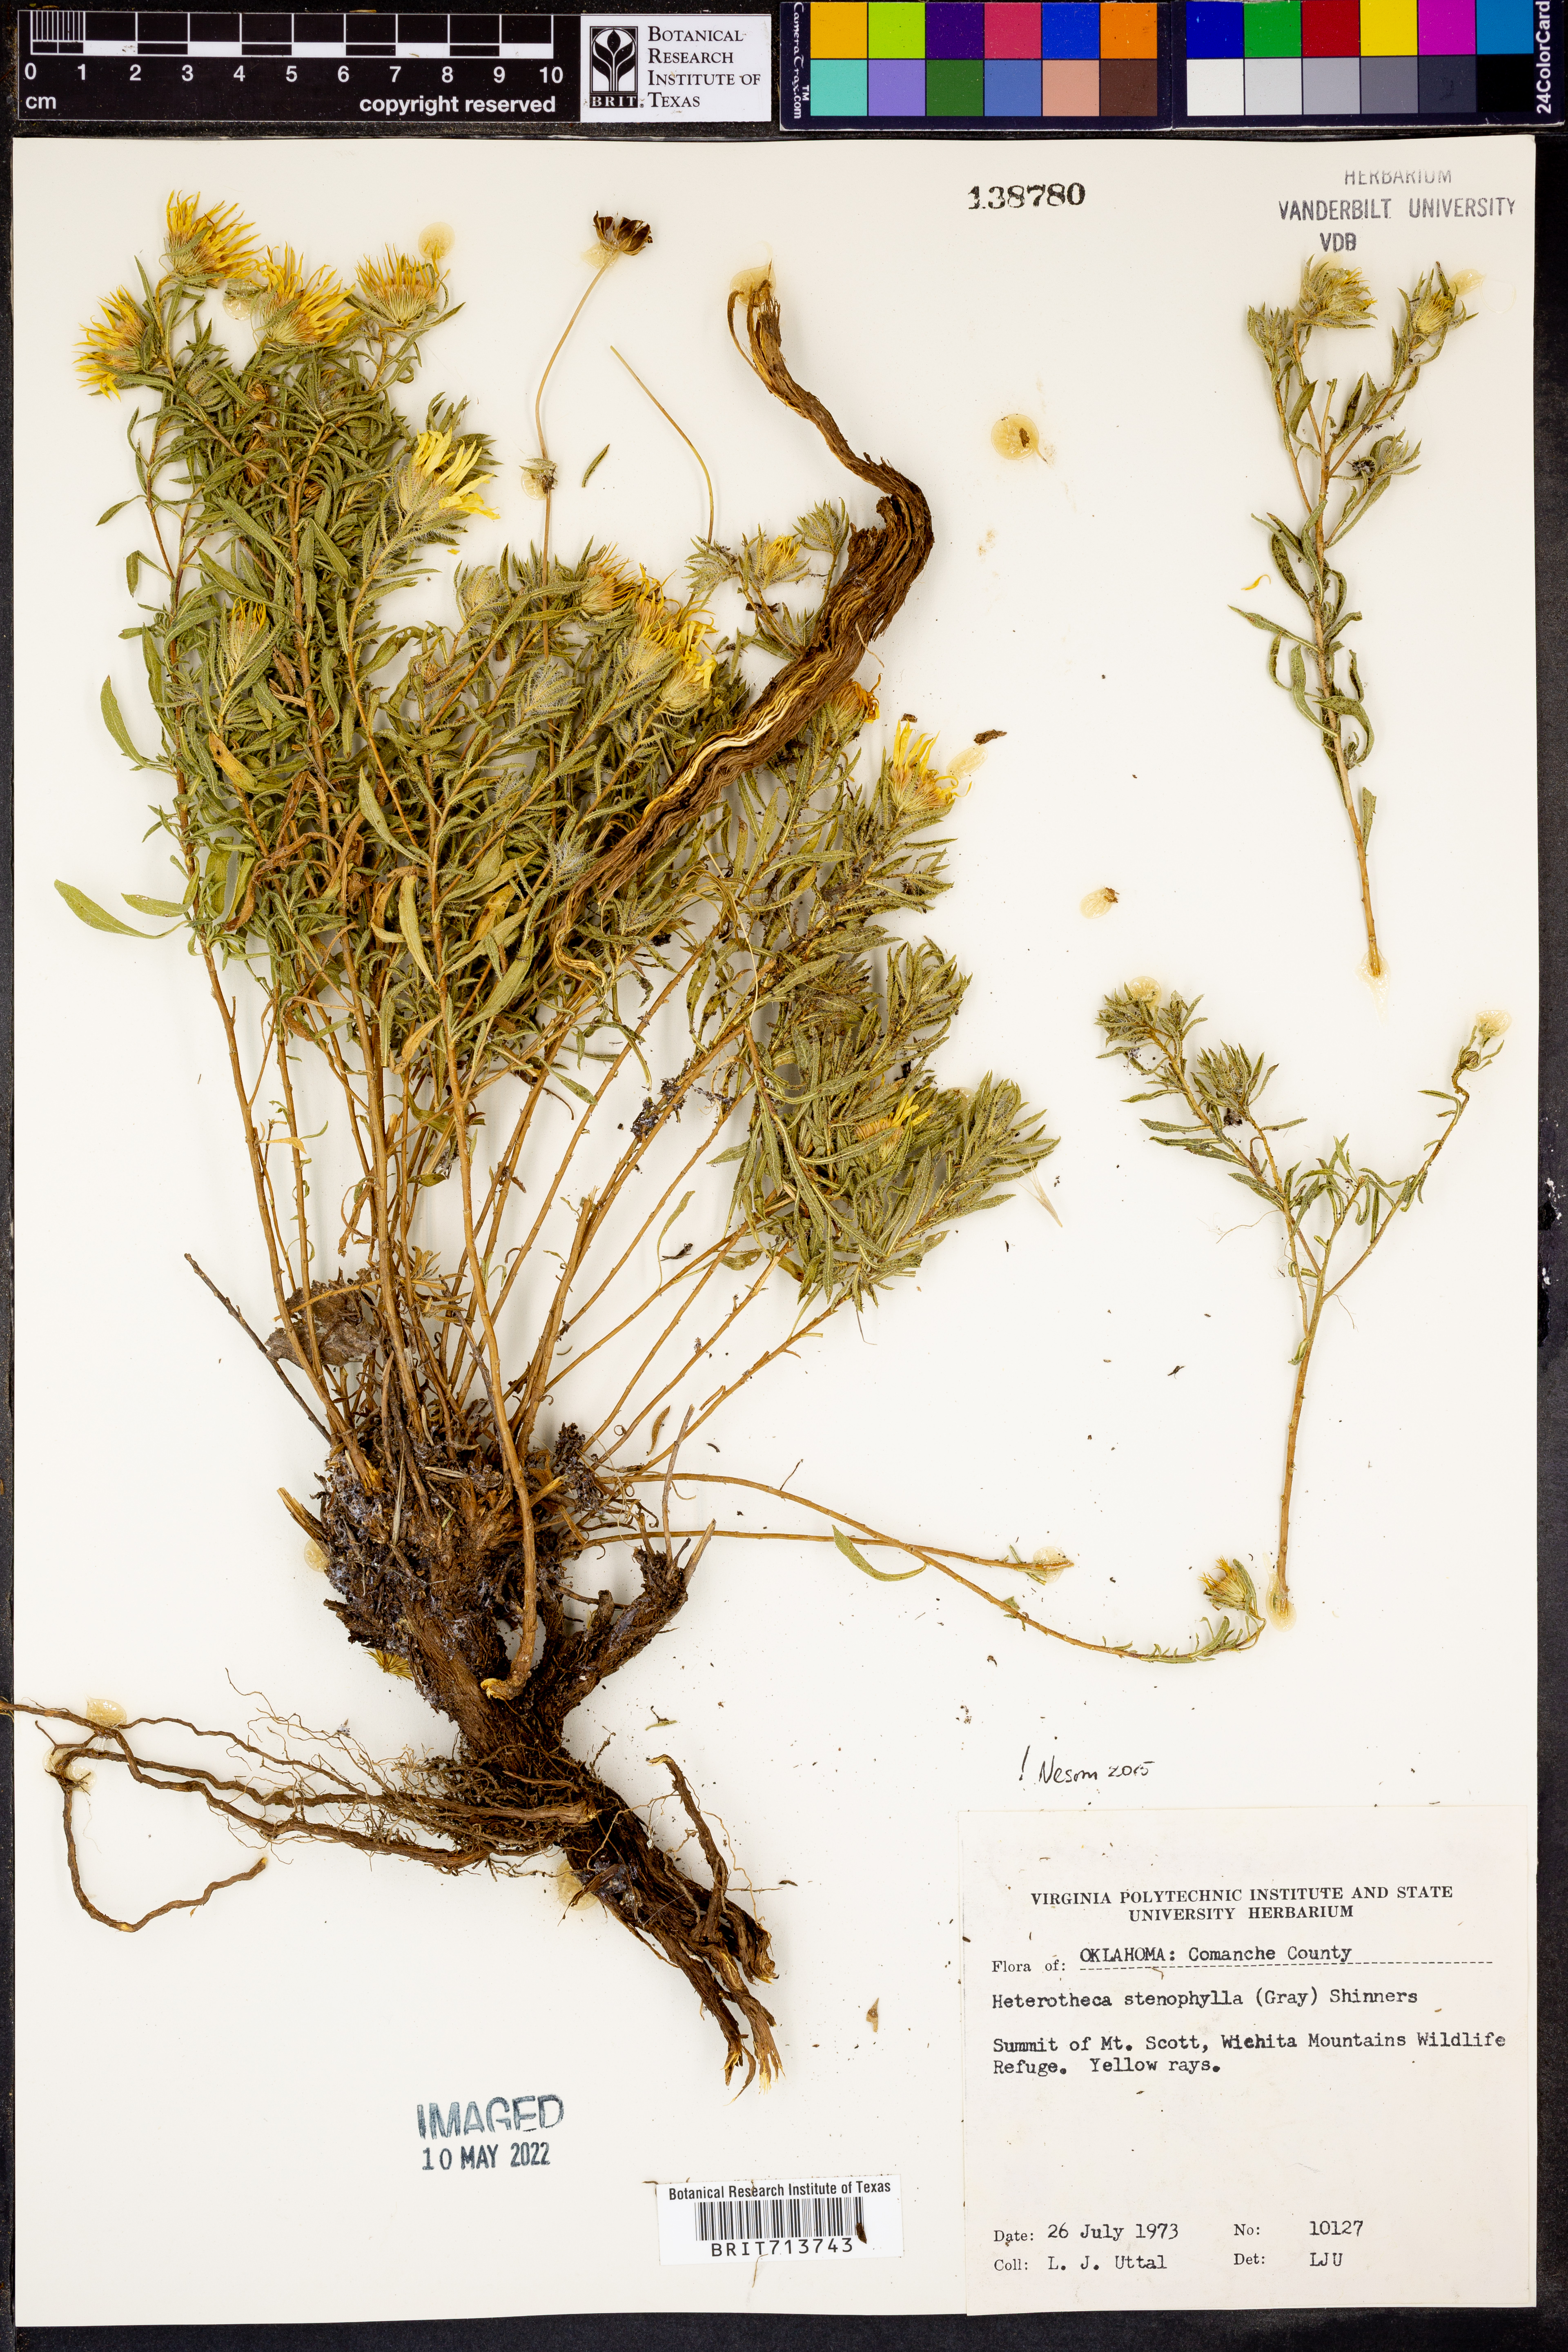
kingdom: Plantae
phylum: Tracheophyta
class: Magnoliopsida
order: Asterales
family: Asteraceae
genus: Heterotheca
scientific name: Heterotheca stenophylla
